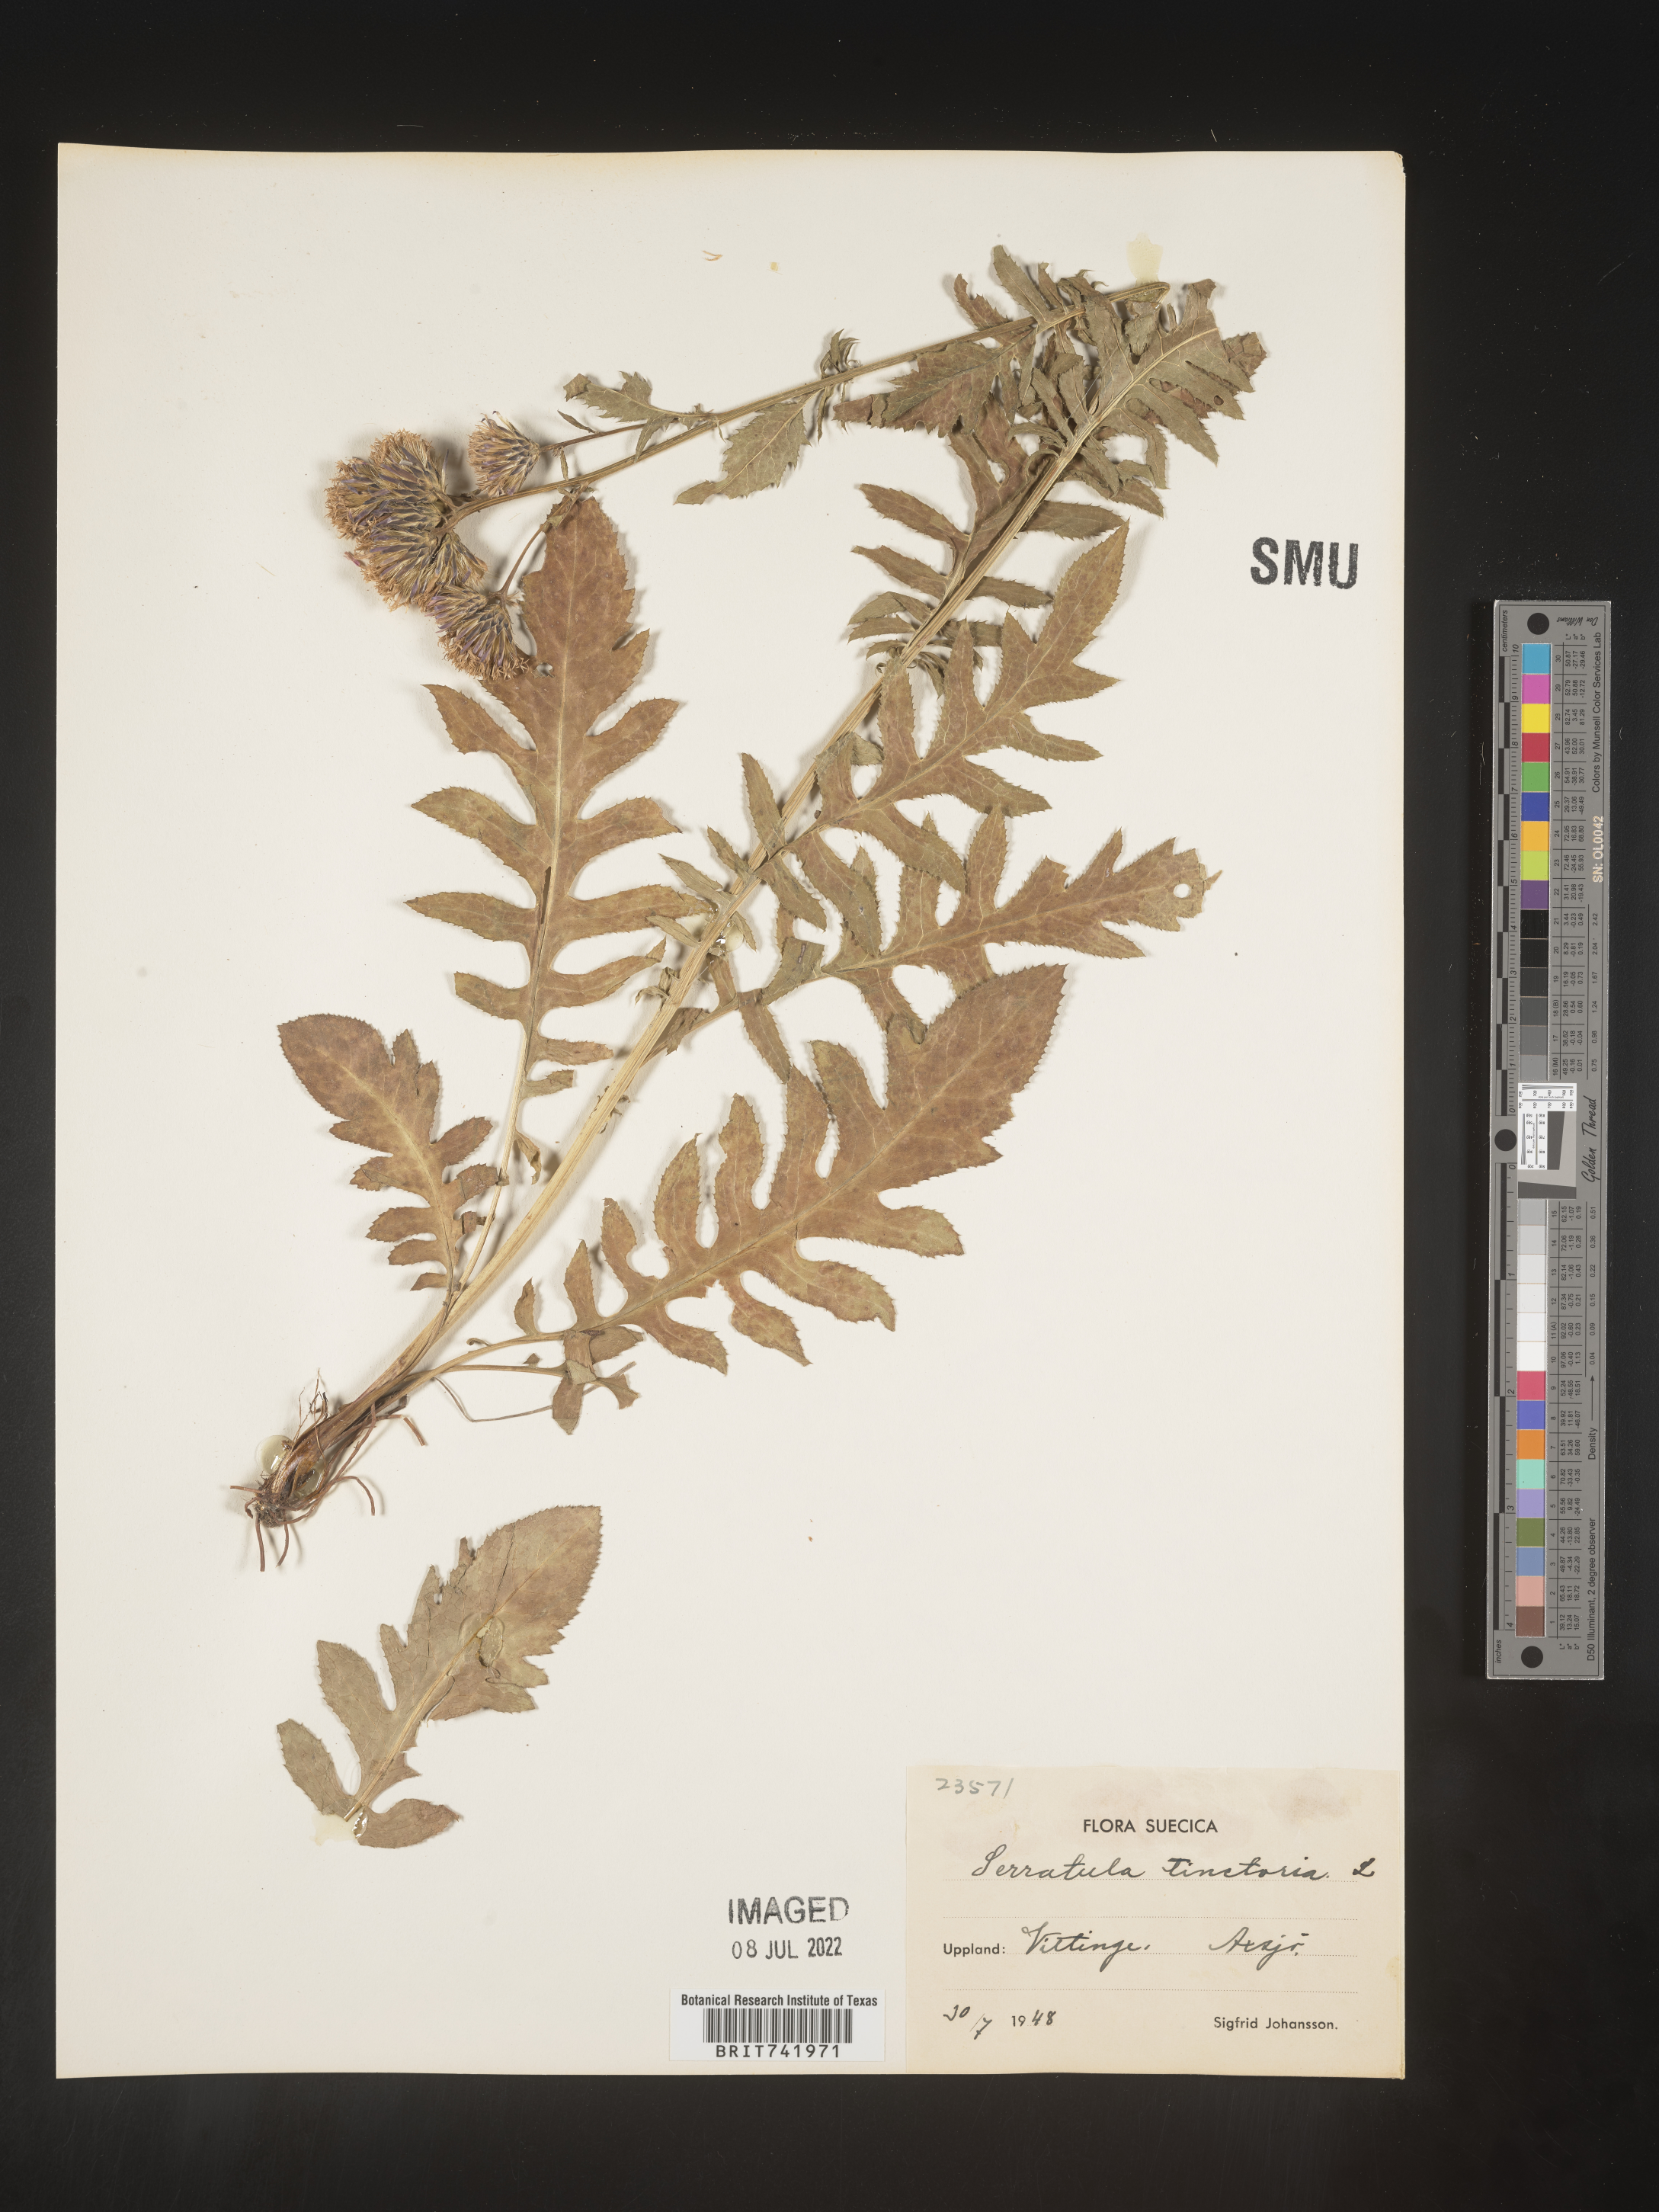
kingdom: Plantae
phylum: Tracheophyta
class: Magnoliopsida
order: Asterales
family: Asteraceae
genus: Serratula
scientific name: Serratula
